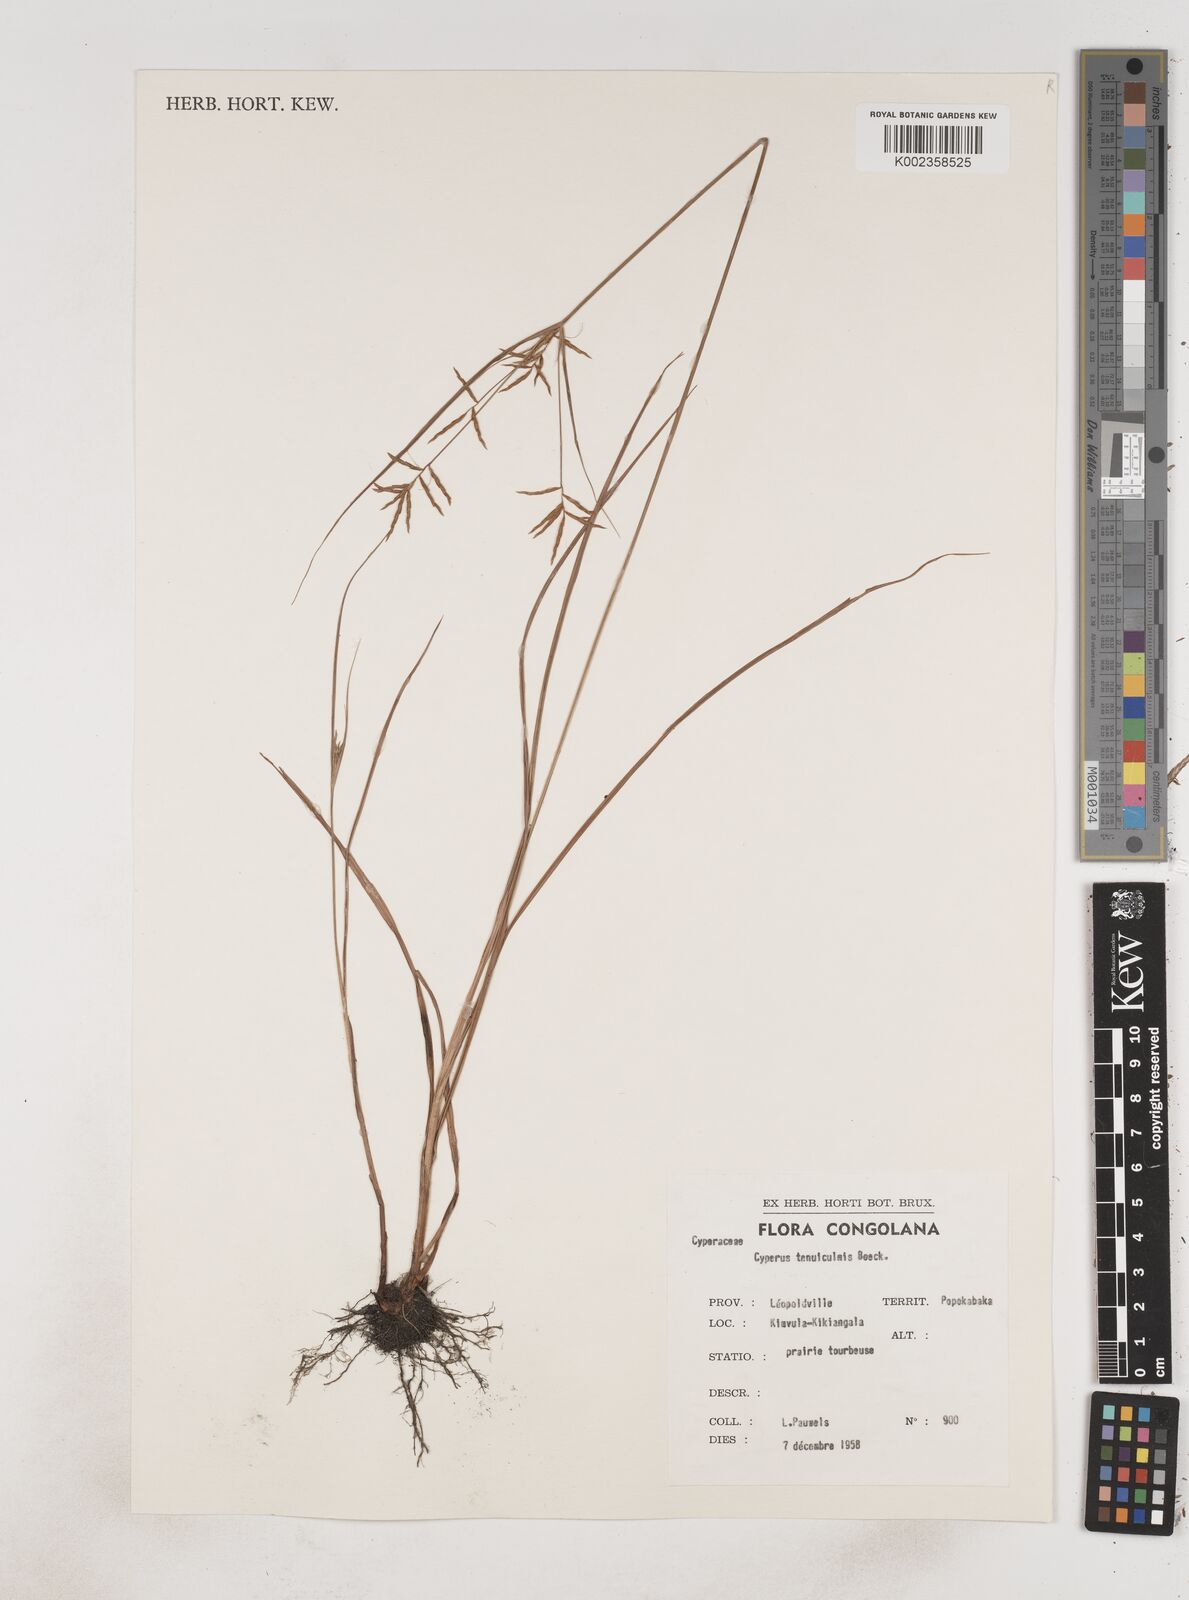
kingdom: Plantae
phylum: Tracheophyta
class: Liliopsida
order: Poales
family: Cyperaceae
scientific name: Cyperaceae
